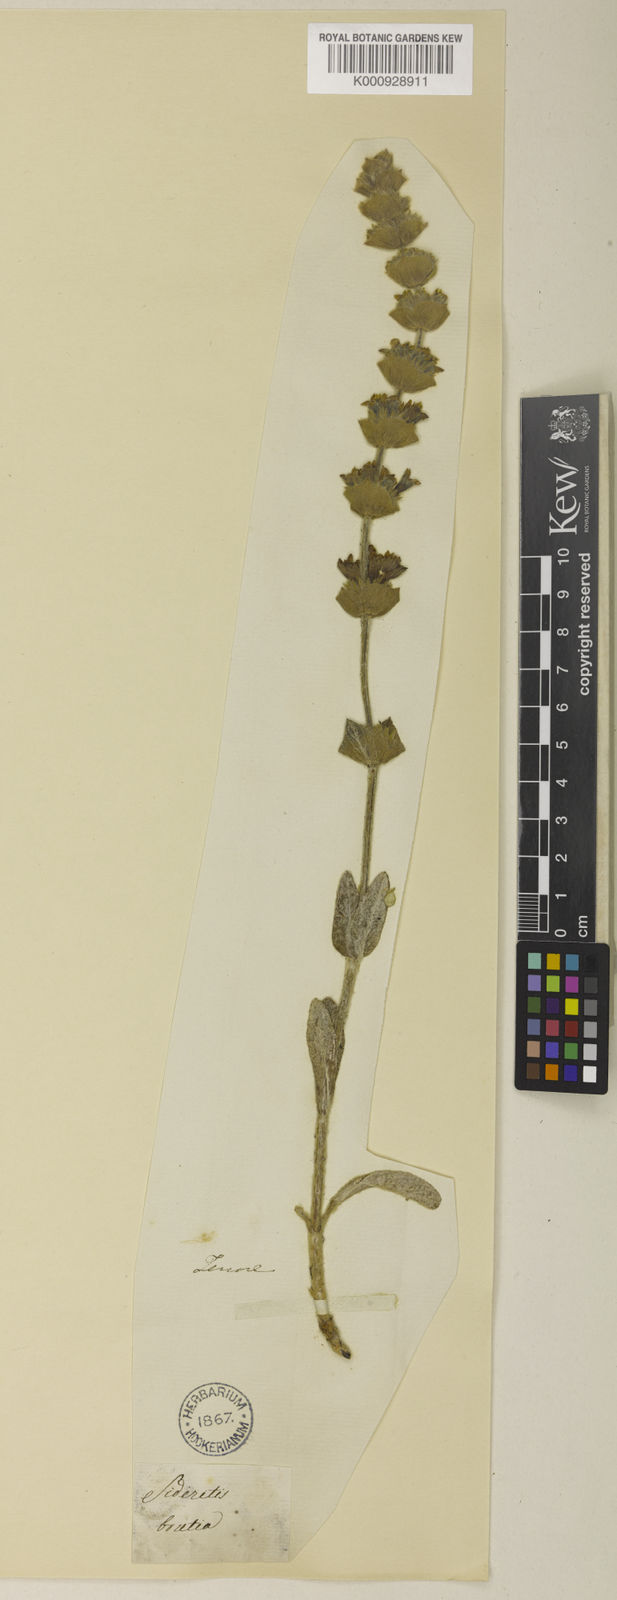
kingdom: Plantae
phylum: Tracheophyta
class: Magnoliopsida
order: Lamiales
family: Lamiaceae
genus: Sideritis
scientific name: Sideritis syriaca
